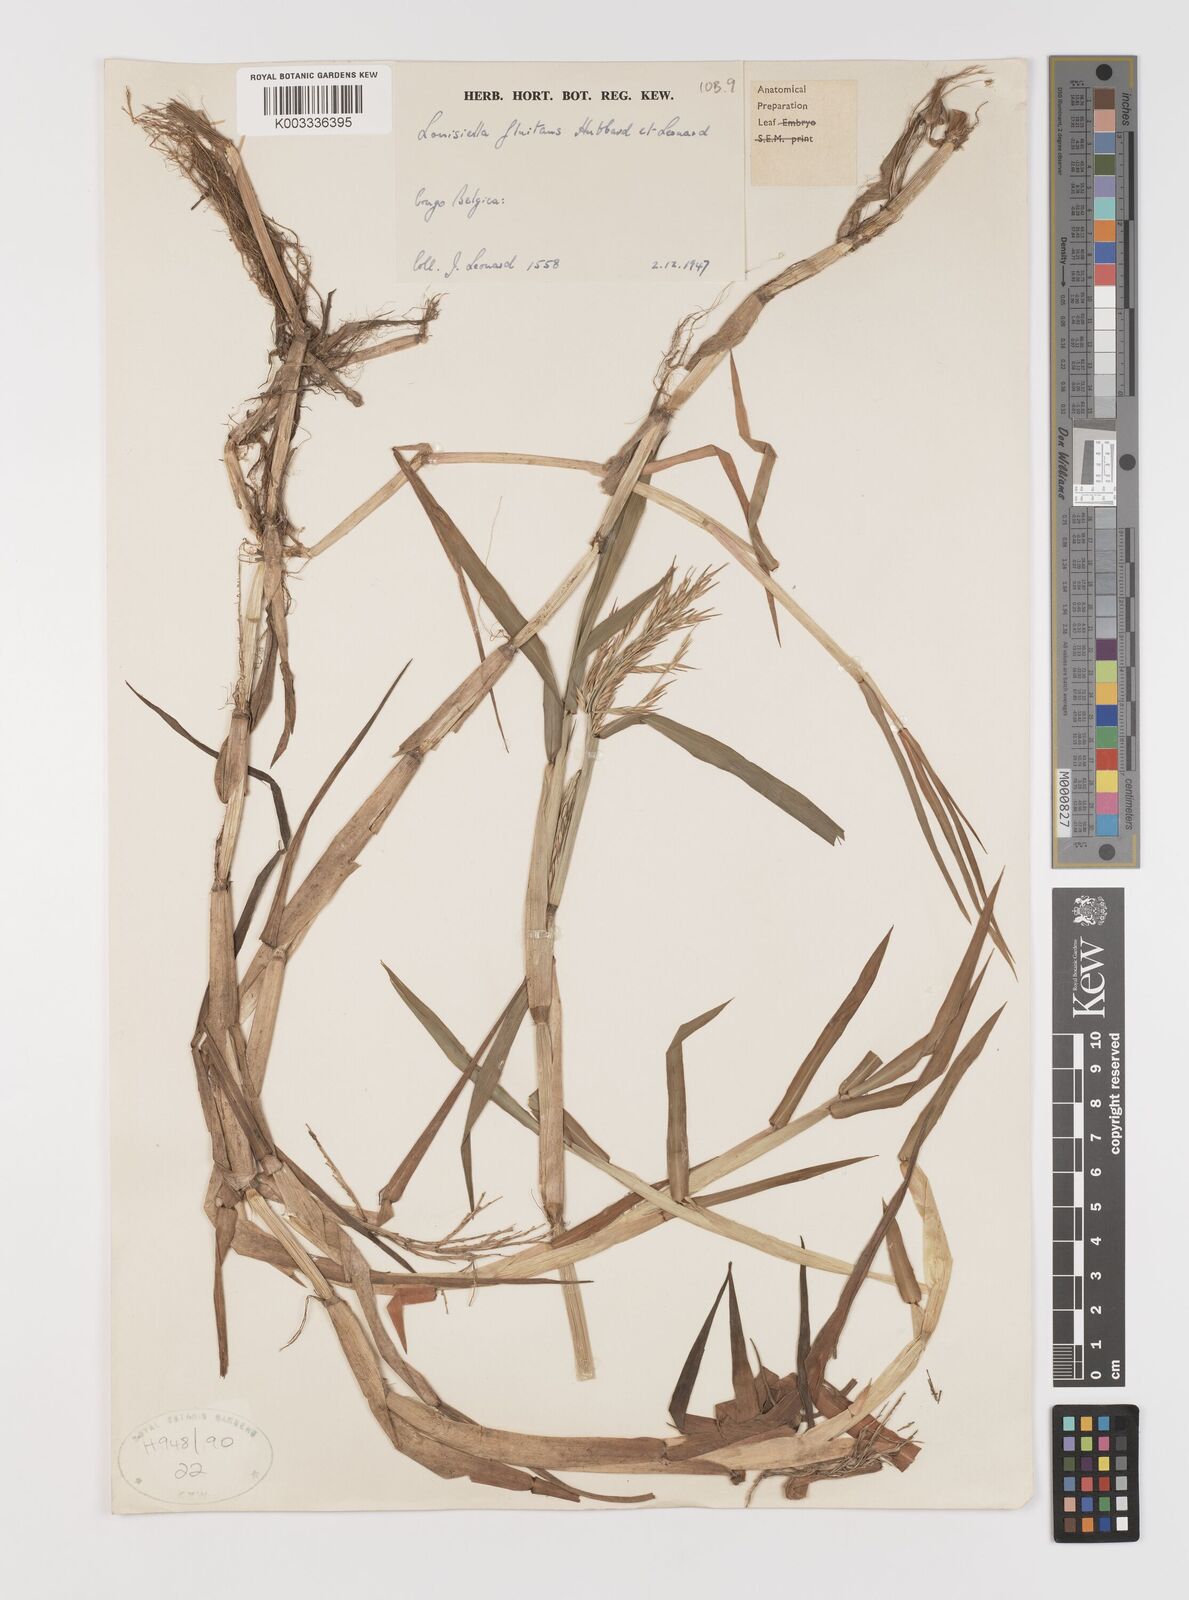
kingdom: Plantae
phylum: Tracheophyta
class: Liliopsida
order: Poales
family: Poaceae
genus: Louisiella
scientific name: Louisiella fluitans
